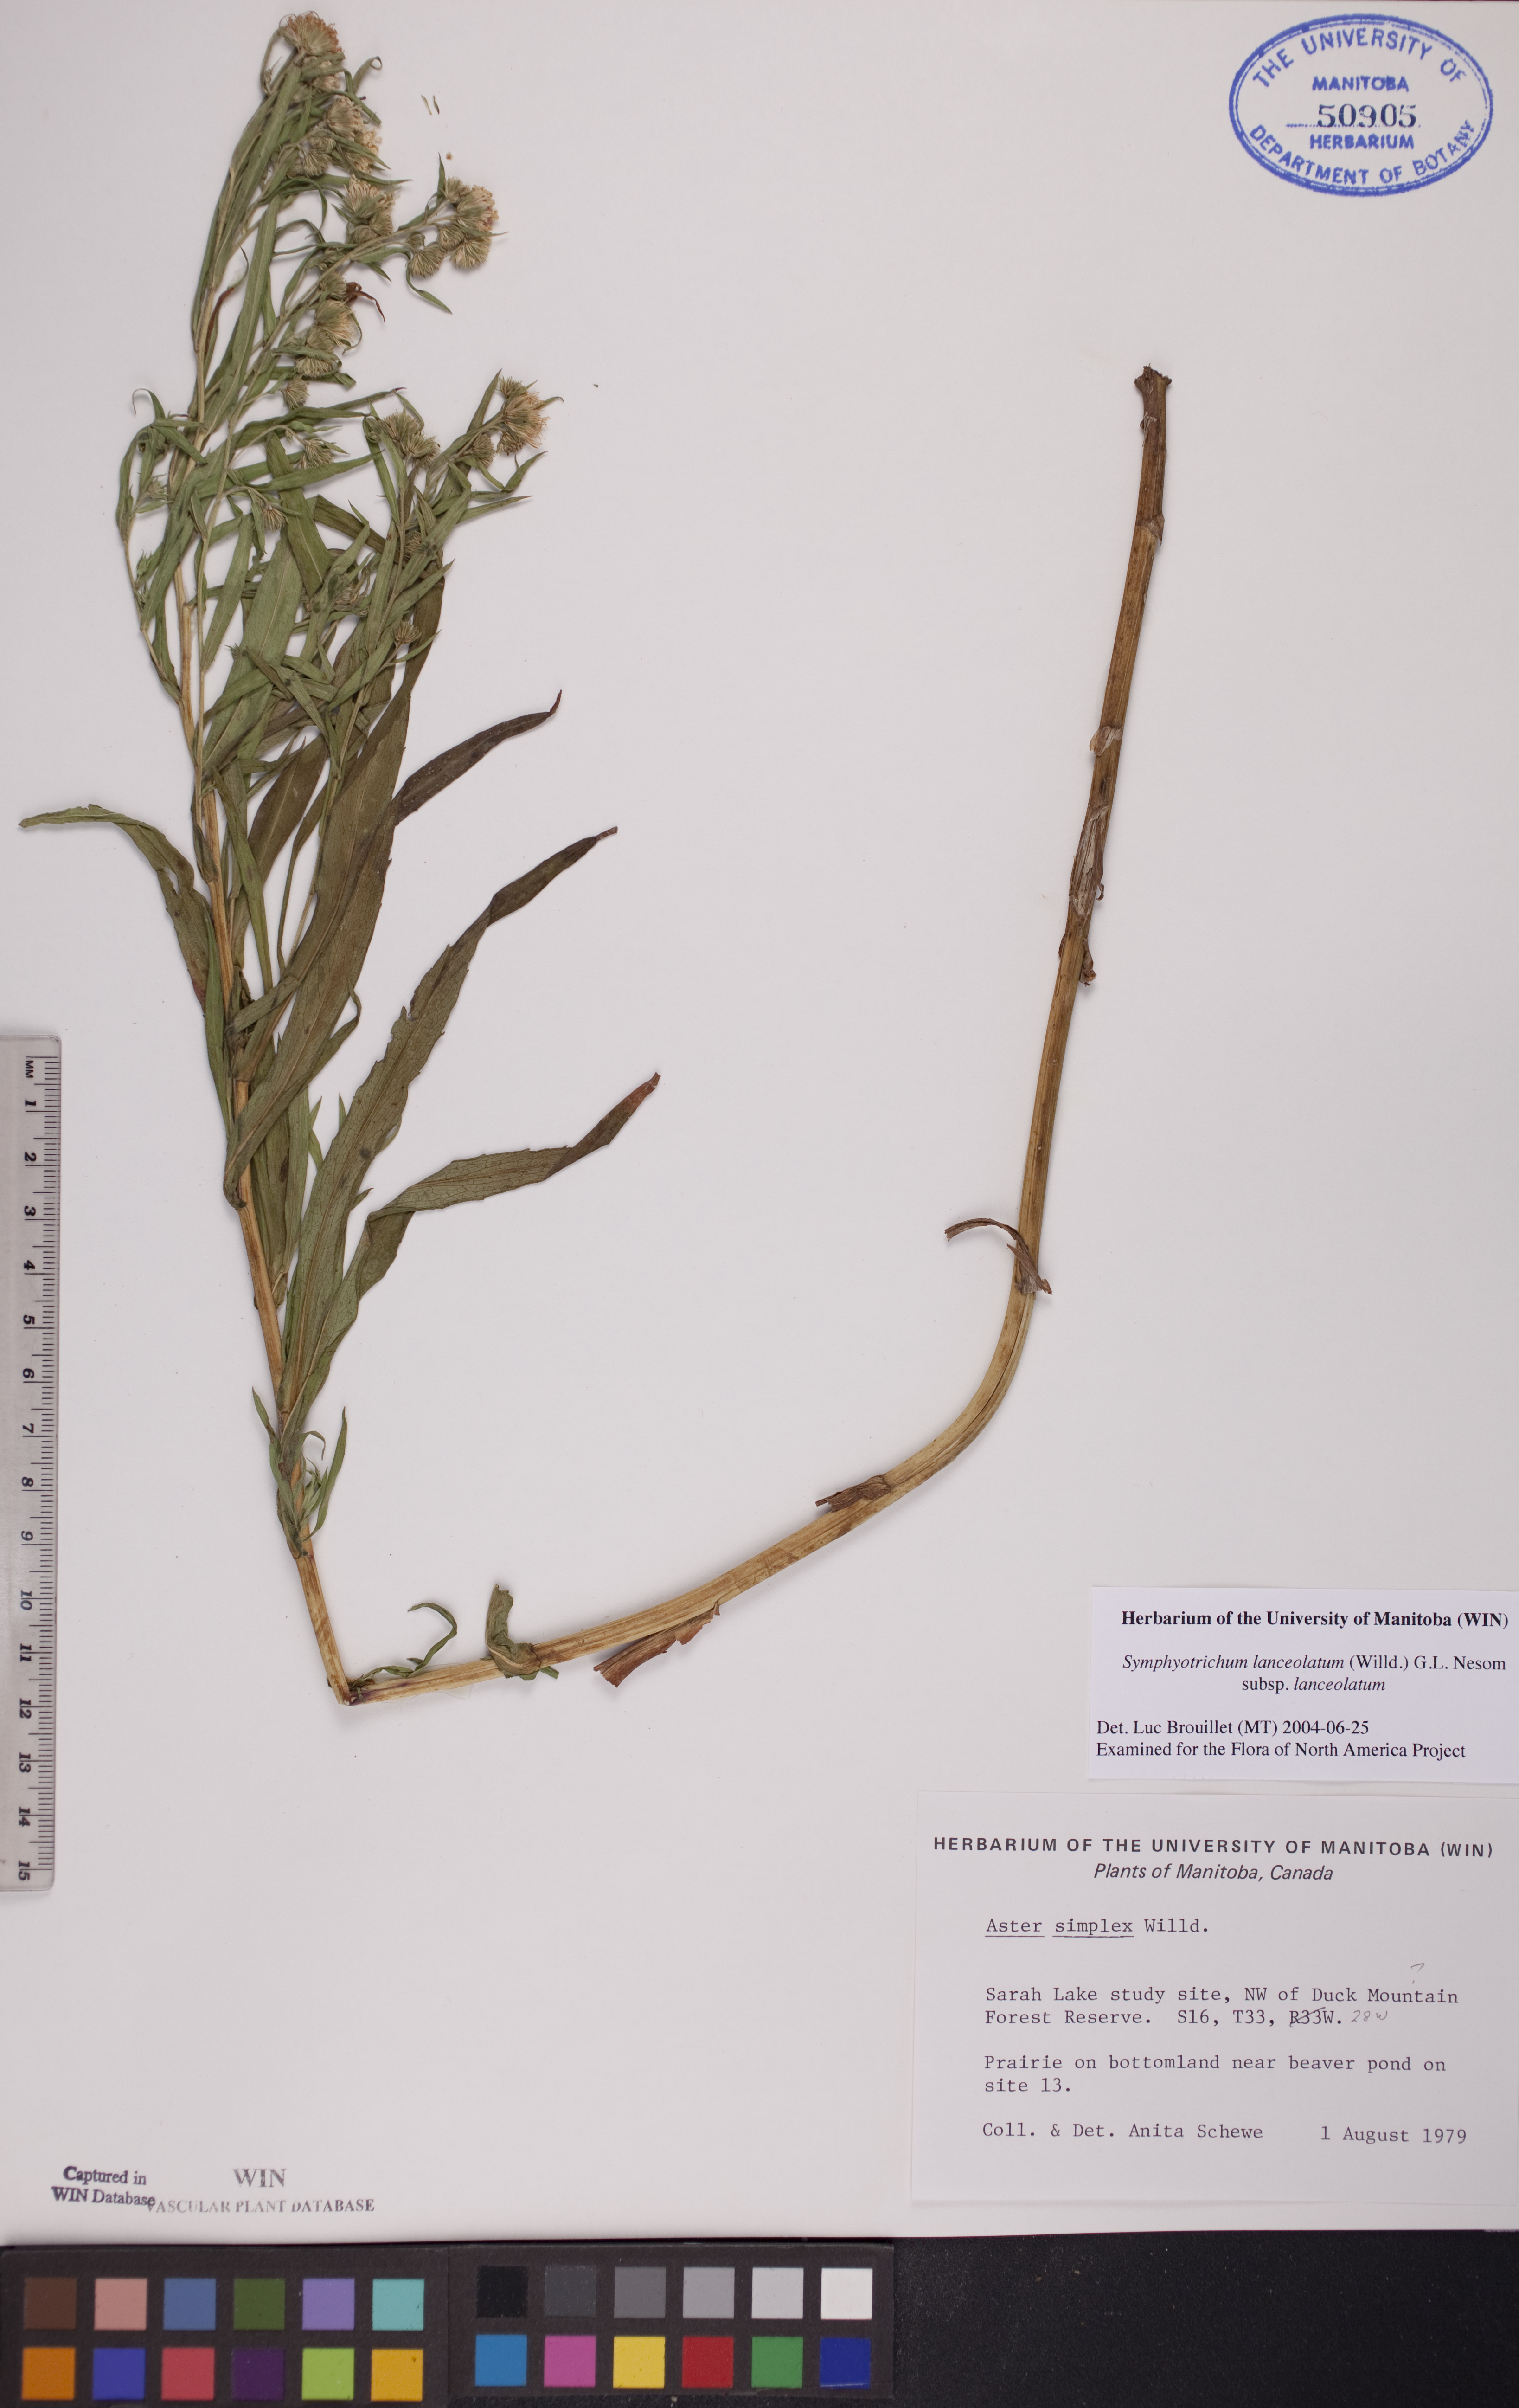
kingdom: Plantae
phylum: Tracheophyta
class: Magnoliopsida
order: Asterales
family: Asteraceae
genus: Symphyotrichum
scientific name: Symphyotrichum lanceolatum
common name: Panicled aster
